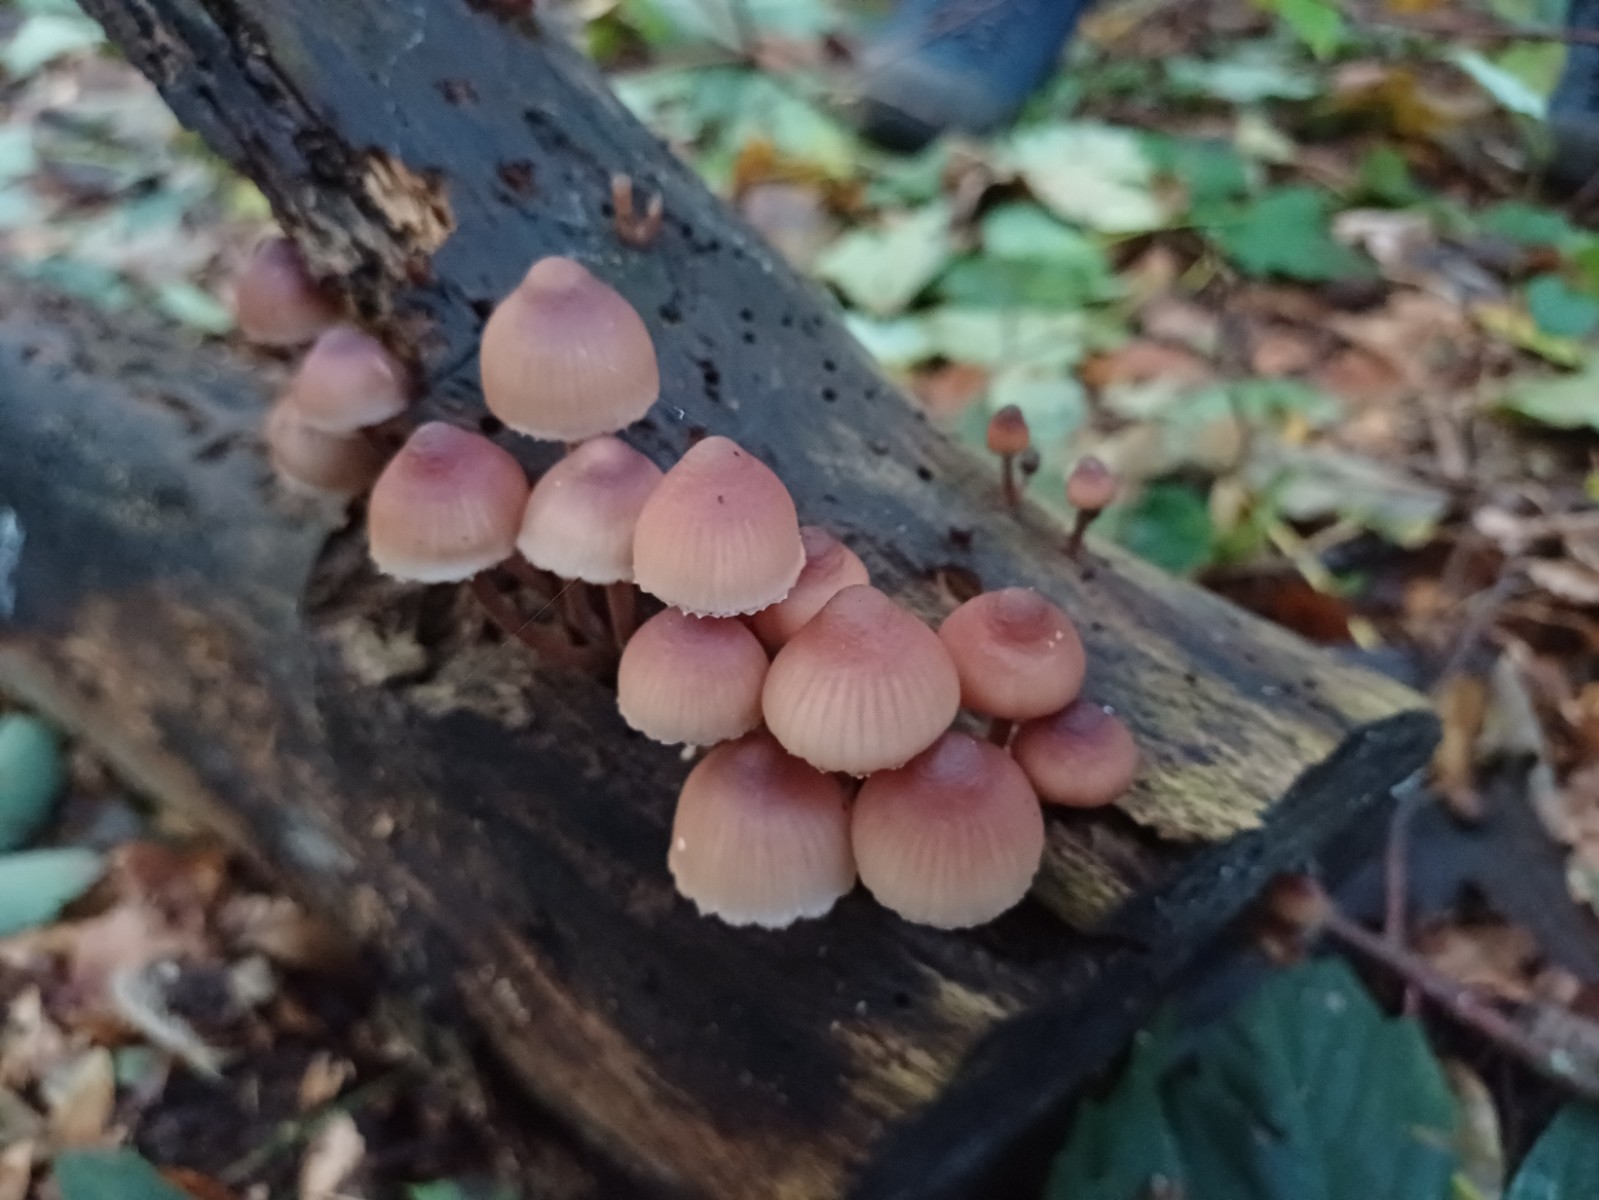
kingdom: Fungi
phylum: Basidiomycota
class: Agaricomycetes
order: Agaricales
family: Mycenaceae
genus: Mycena
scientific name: Mycena haematopus
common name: blødende huesvamp
